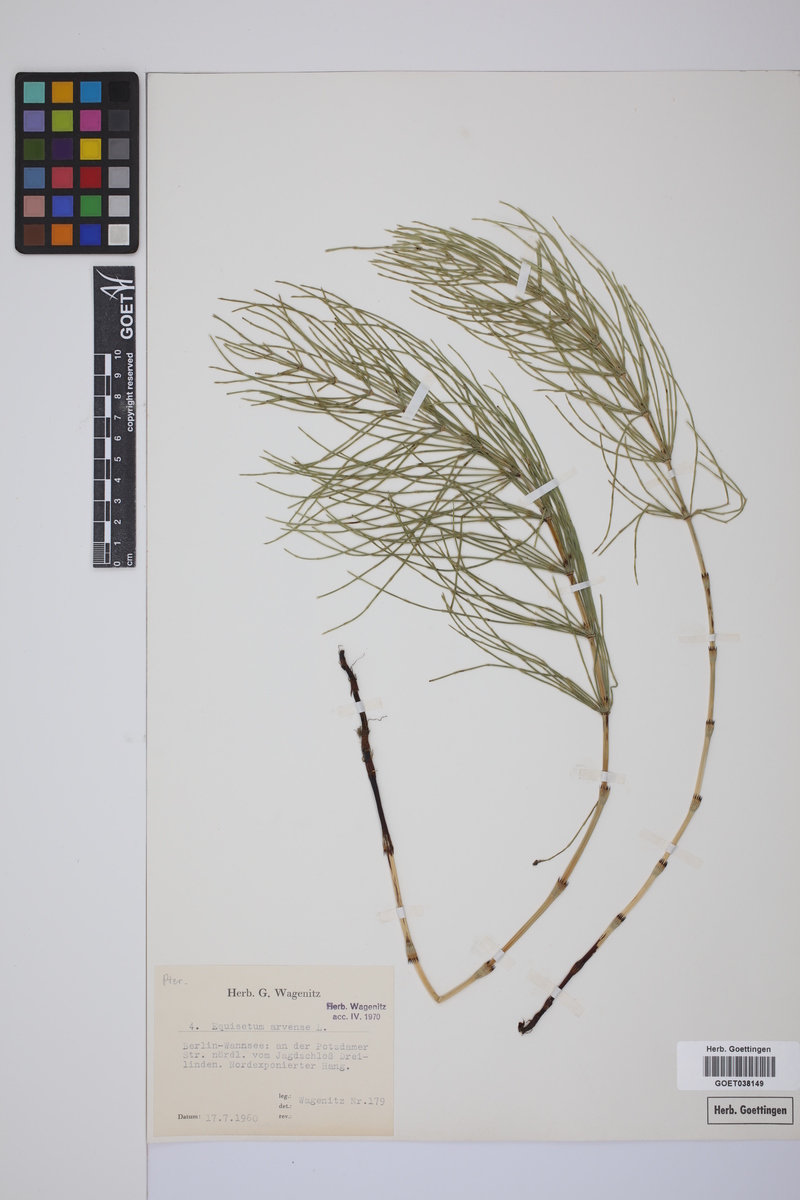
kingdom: Plantae
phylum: Tracheophyta
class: Polypodiopsida
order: Equisetales
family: Equisetaceae
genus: Equisetum
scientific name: Equisetum arvense
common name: Field horsetail
